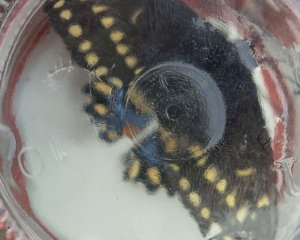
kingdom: Animalia
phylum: Arthropoda
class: Insecta
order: Lepidoptera
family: Papilionidae
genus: Papilio
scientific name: Papilio polyxenes
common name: Black Swallowtail
